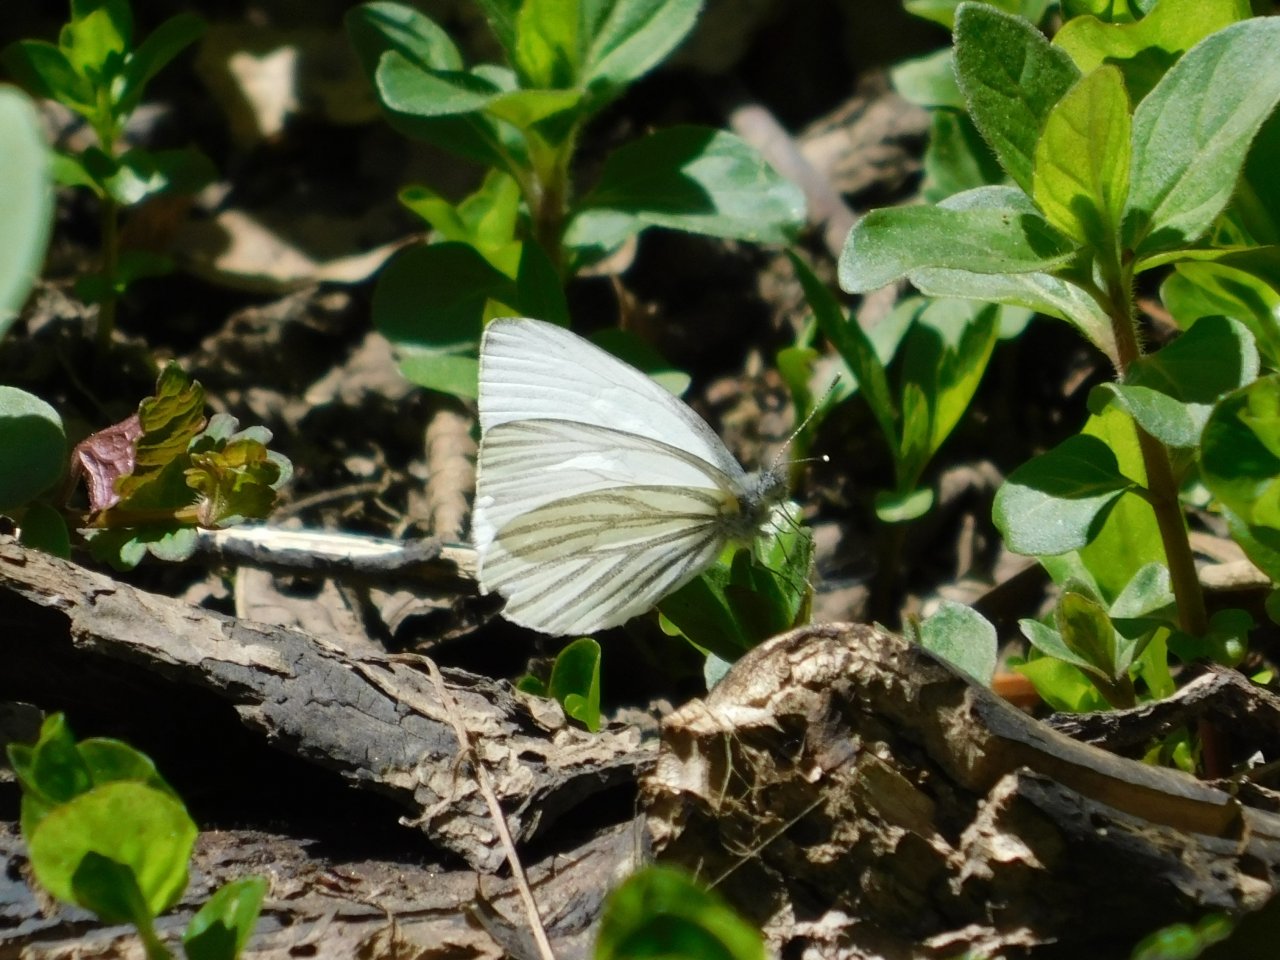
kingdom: Animalia
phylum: Arthropoda
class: Insecta
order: Lepidoptera
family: Pieridae
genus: Pieris
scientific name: Pieris oleracea
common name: Mustard White
